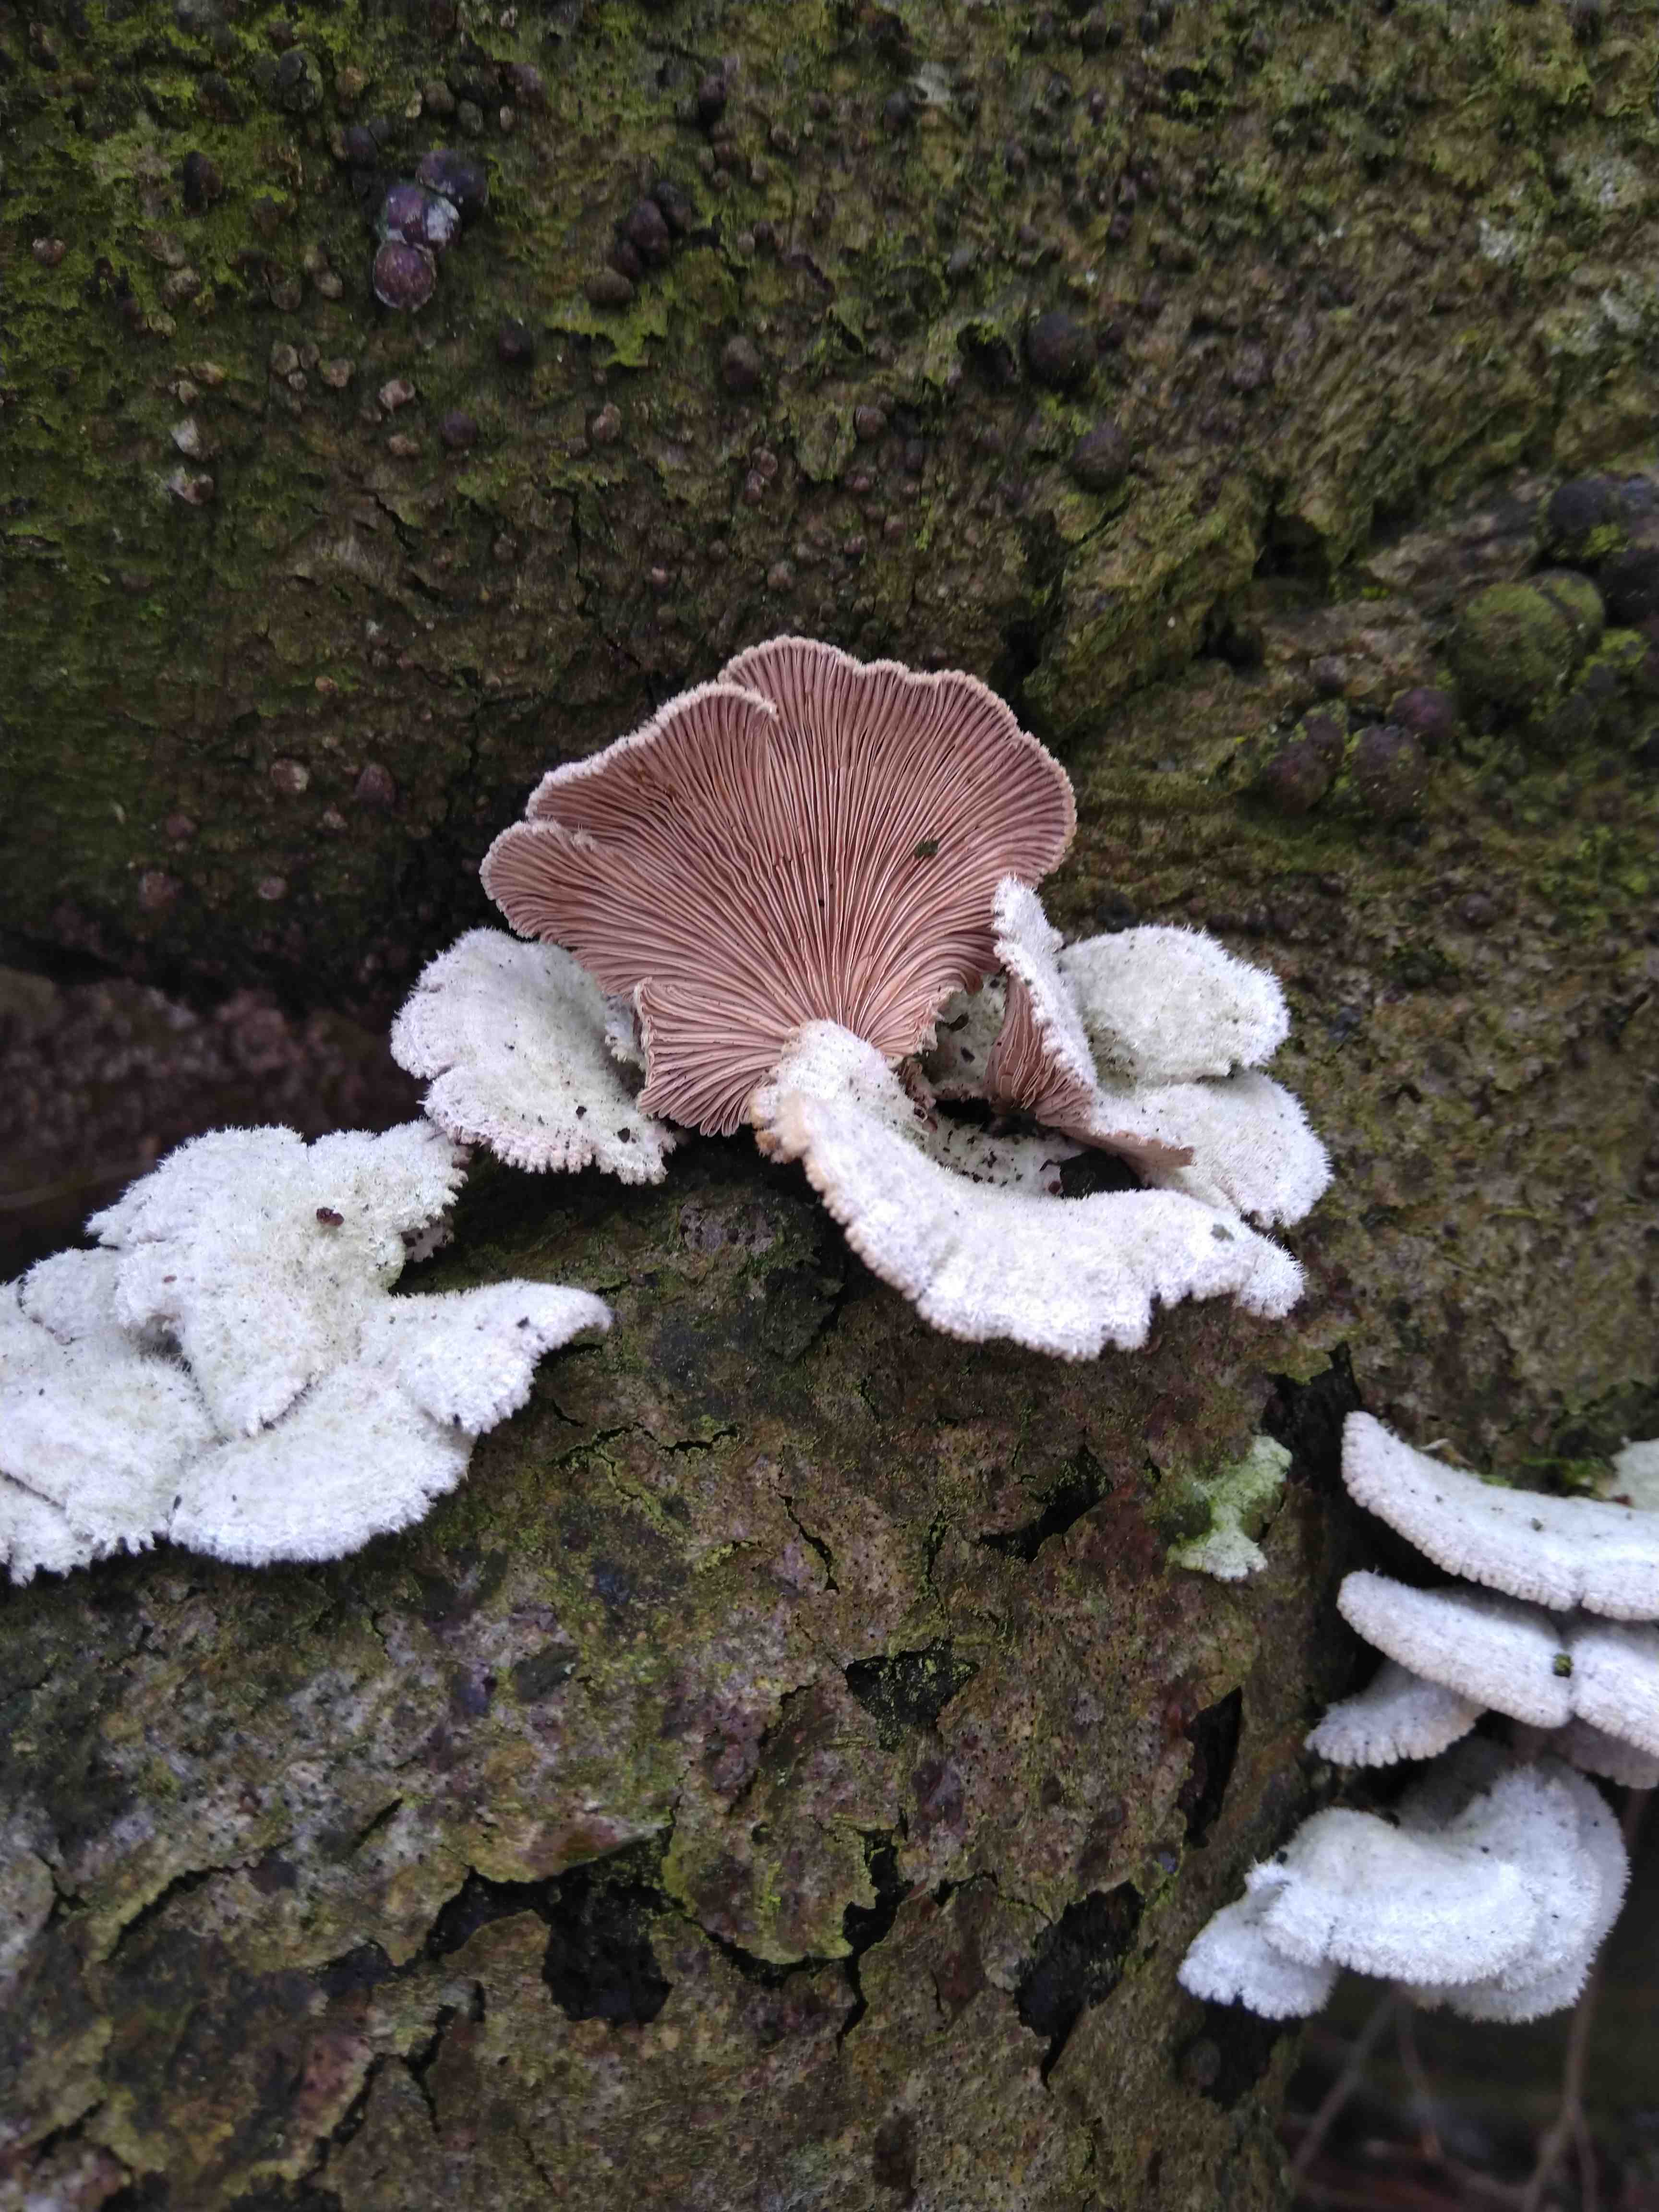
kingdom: Fungi
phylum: Basidiomycota
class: Agaricomycetes
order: Agaricales
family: Schizophyllaceae
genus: Schizophyllum
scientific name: Schizophyllum commune
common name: kløvblad
